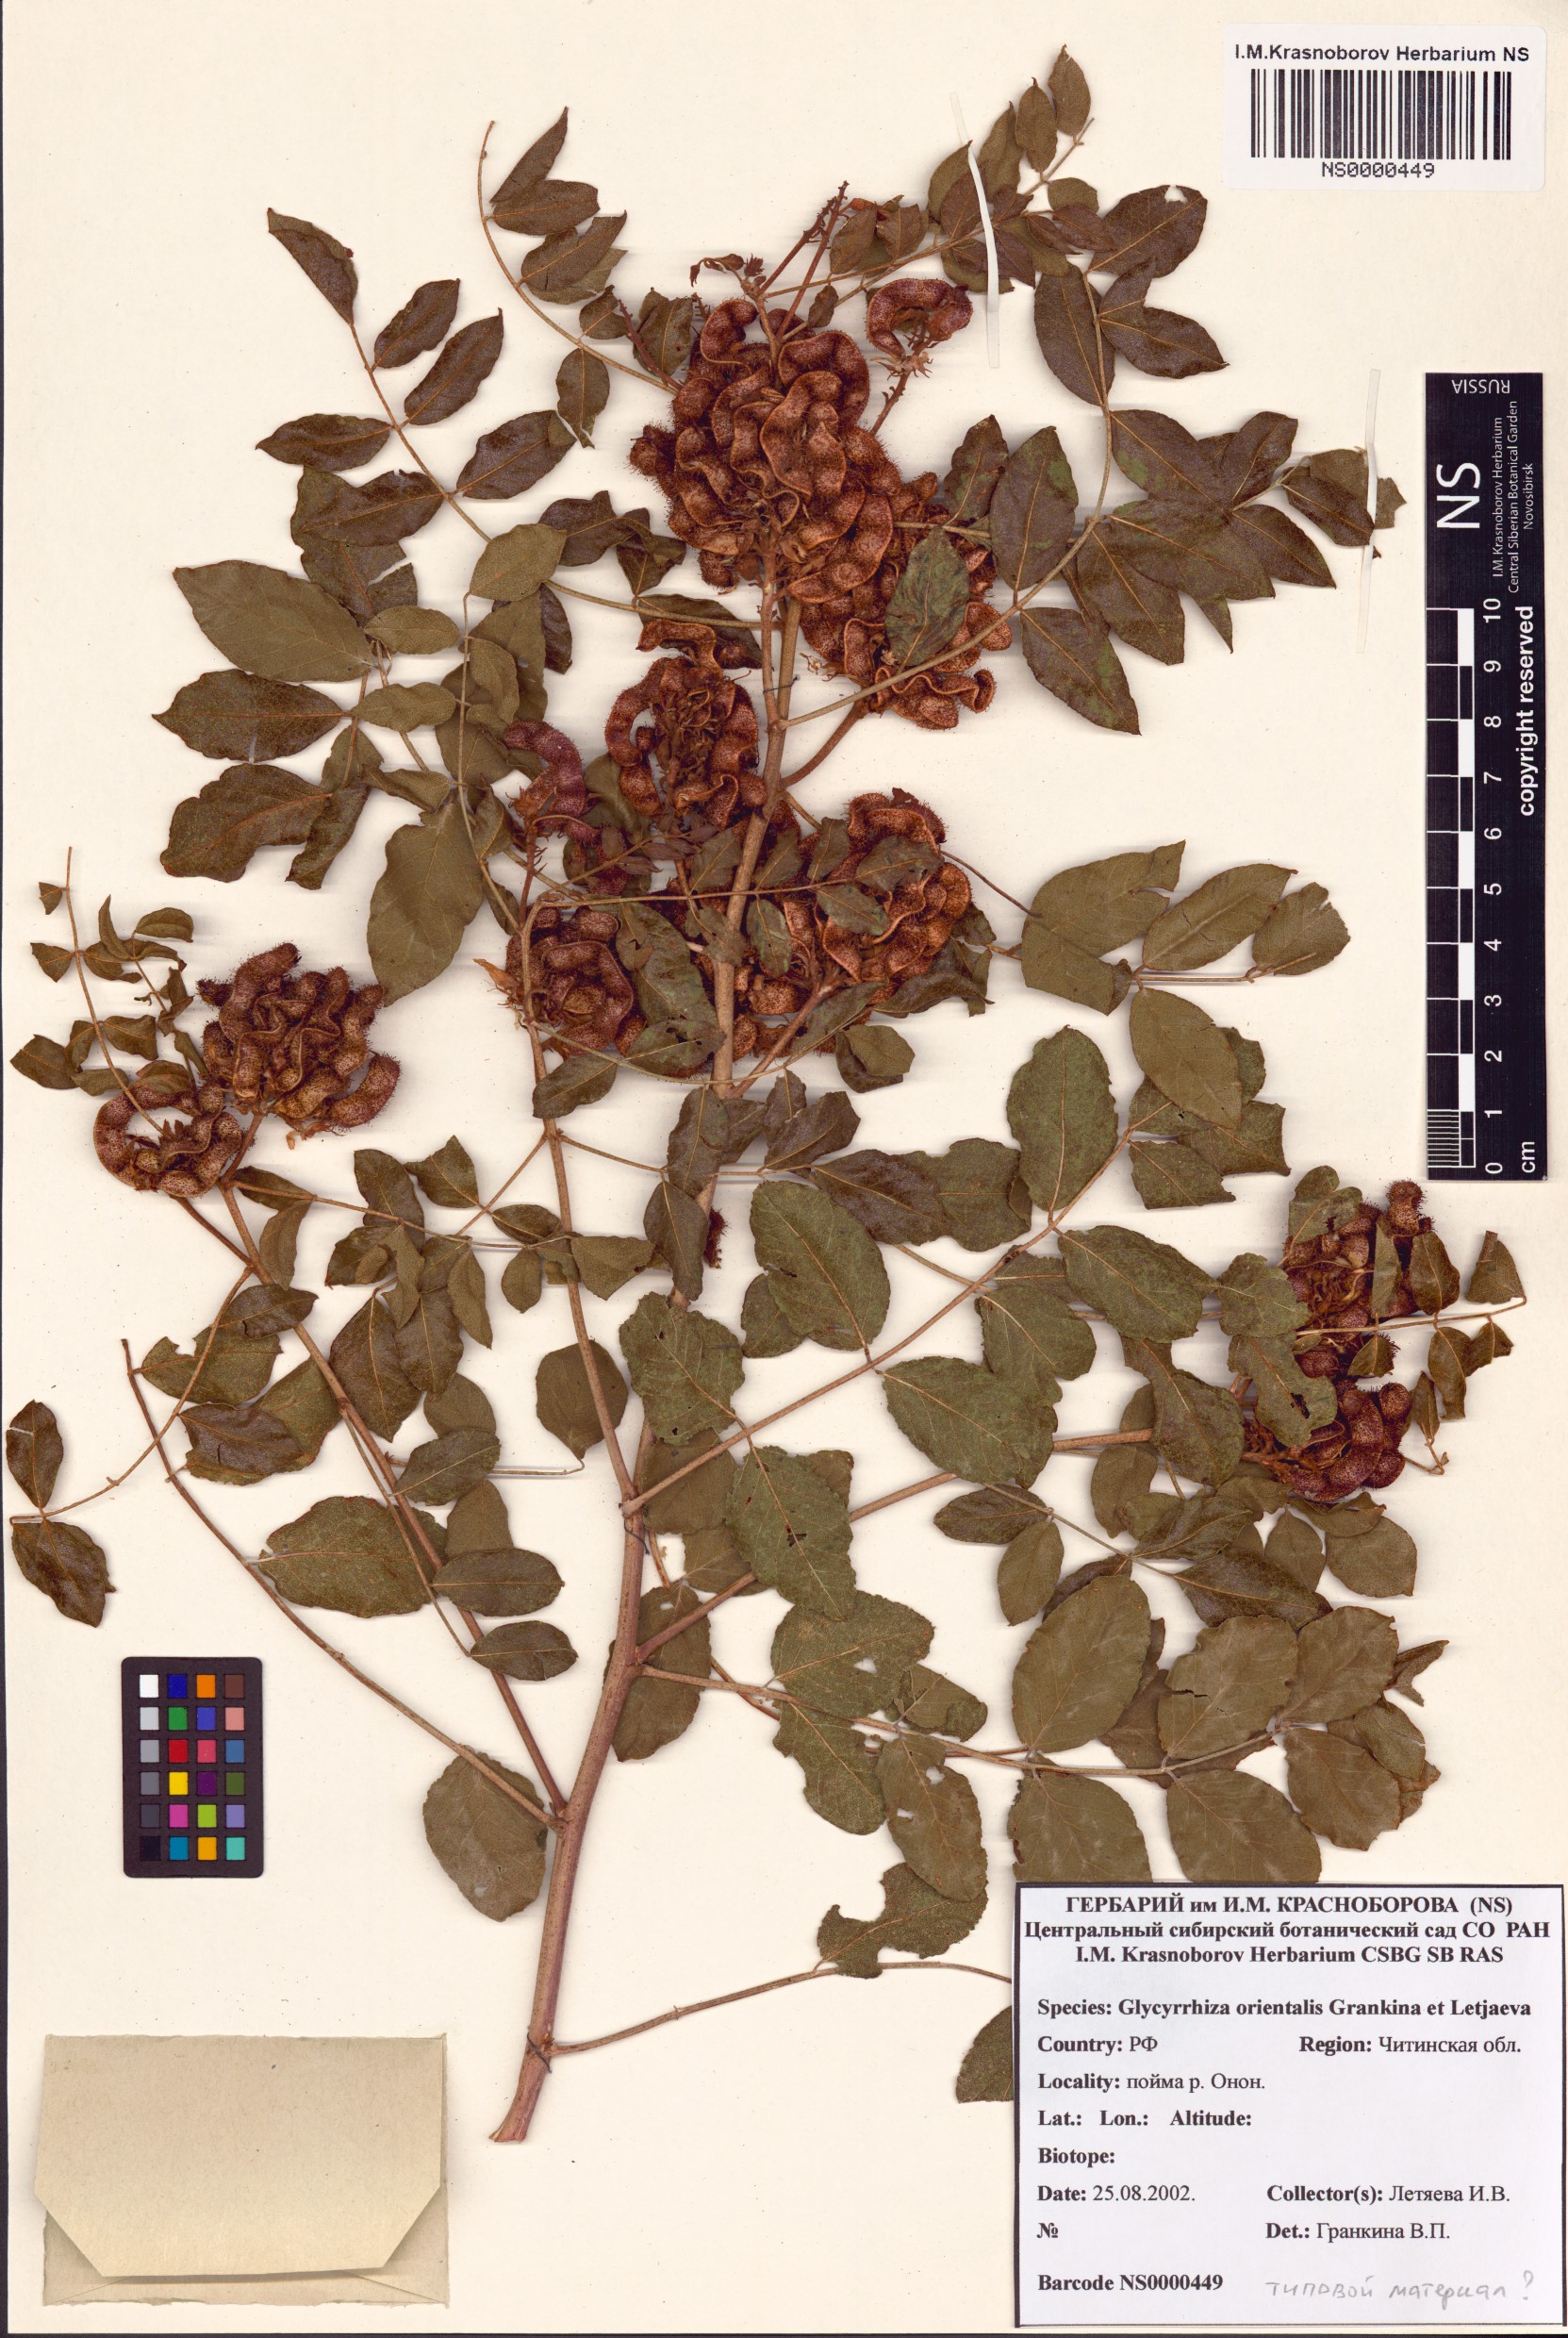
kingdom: Plantae
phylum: Tracheophyta
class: Magnoliopsida
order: Fabales
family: Fabaceae
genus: Glycyrrhiza
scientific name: Glycyrrhiza uralensis
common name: Chinese licorice
